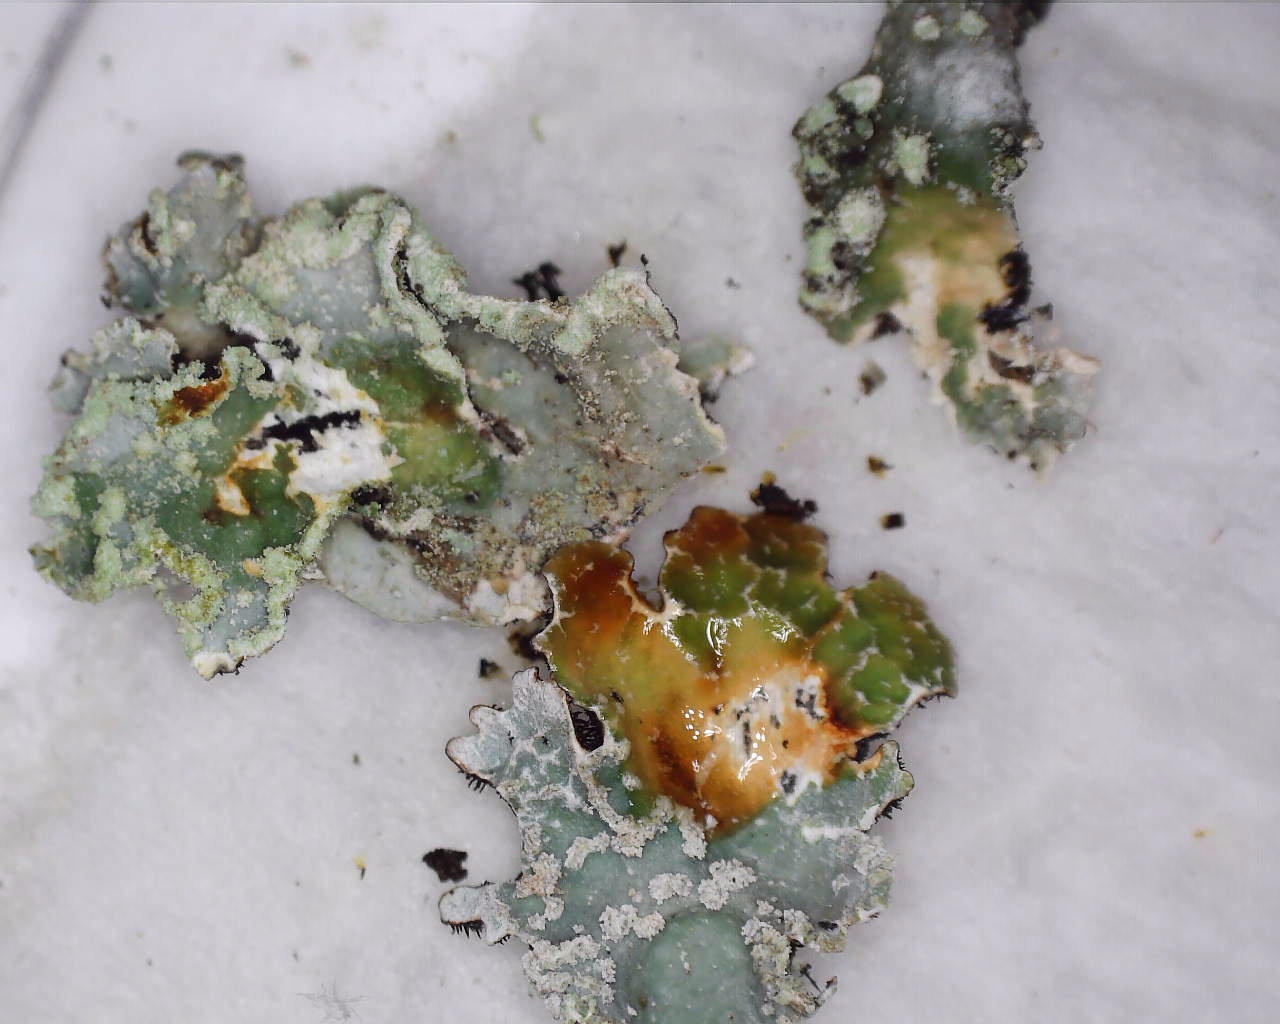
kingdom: Fungi
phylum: Ascomycota
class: Lecanoromycetes
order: Lecanorales
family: Parmeliaceae
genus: Parmelia
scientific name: Parmelia sulcata
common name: rynket skållav
